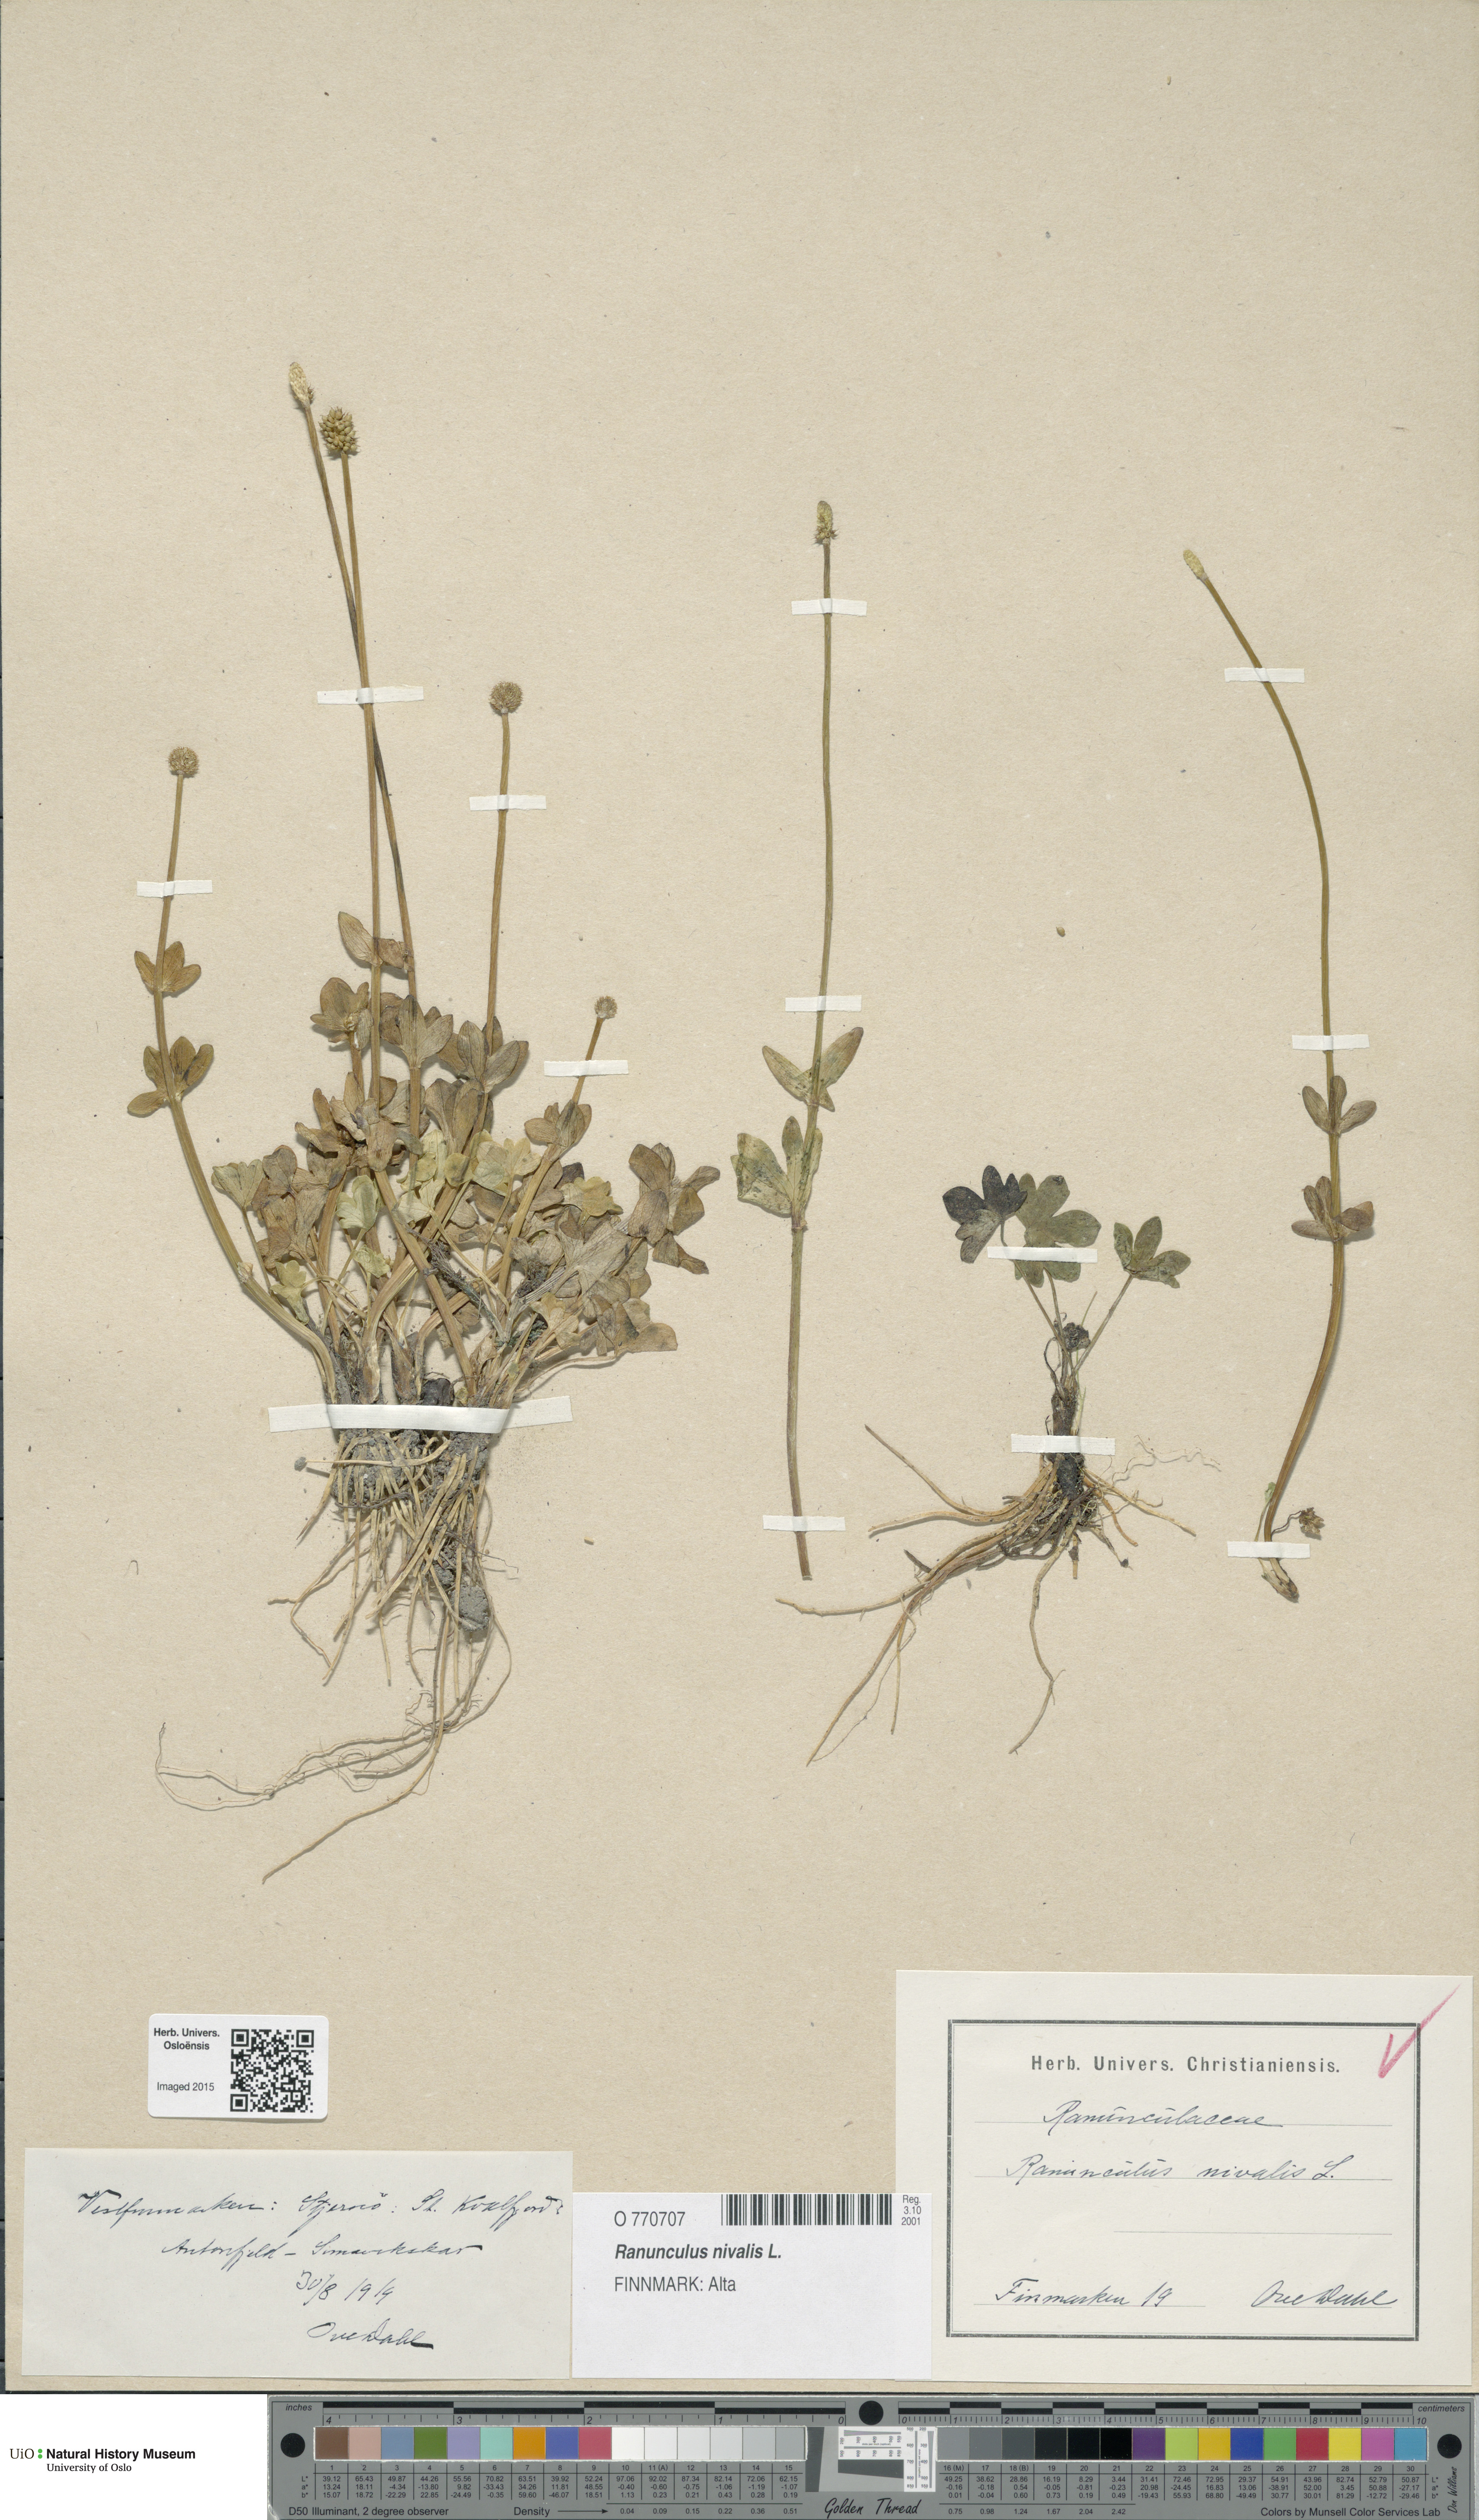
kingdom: Plantae
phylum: Tracheophyta
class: Magnoliopsida
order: Ranunculales
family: Ranunculaceae
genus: Ranunculus
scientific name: Ranunculus nivalis
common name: Snow buttercup
